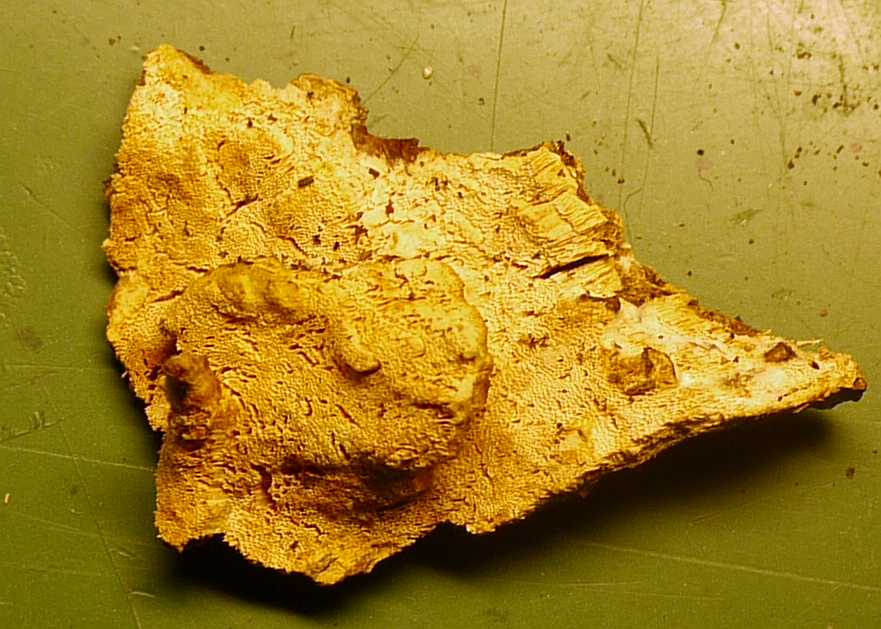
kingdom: Fungi
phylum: Basidiomycota
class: Agaricomycetes
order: Hymenochaetales
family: Schizoporaceae
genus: Xylodon
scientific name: Xylodon flaviporus
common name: gulporet tandsvamp
